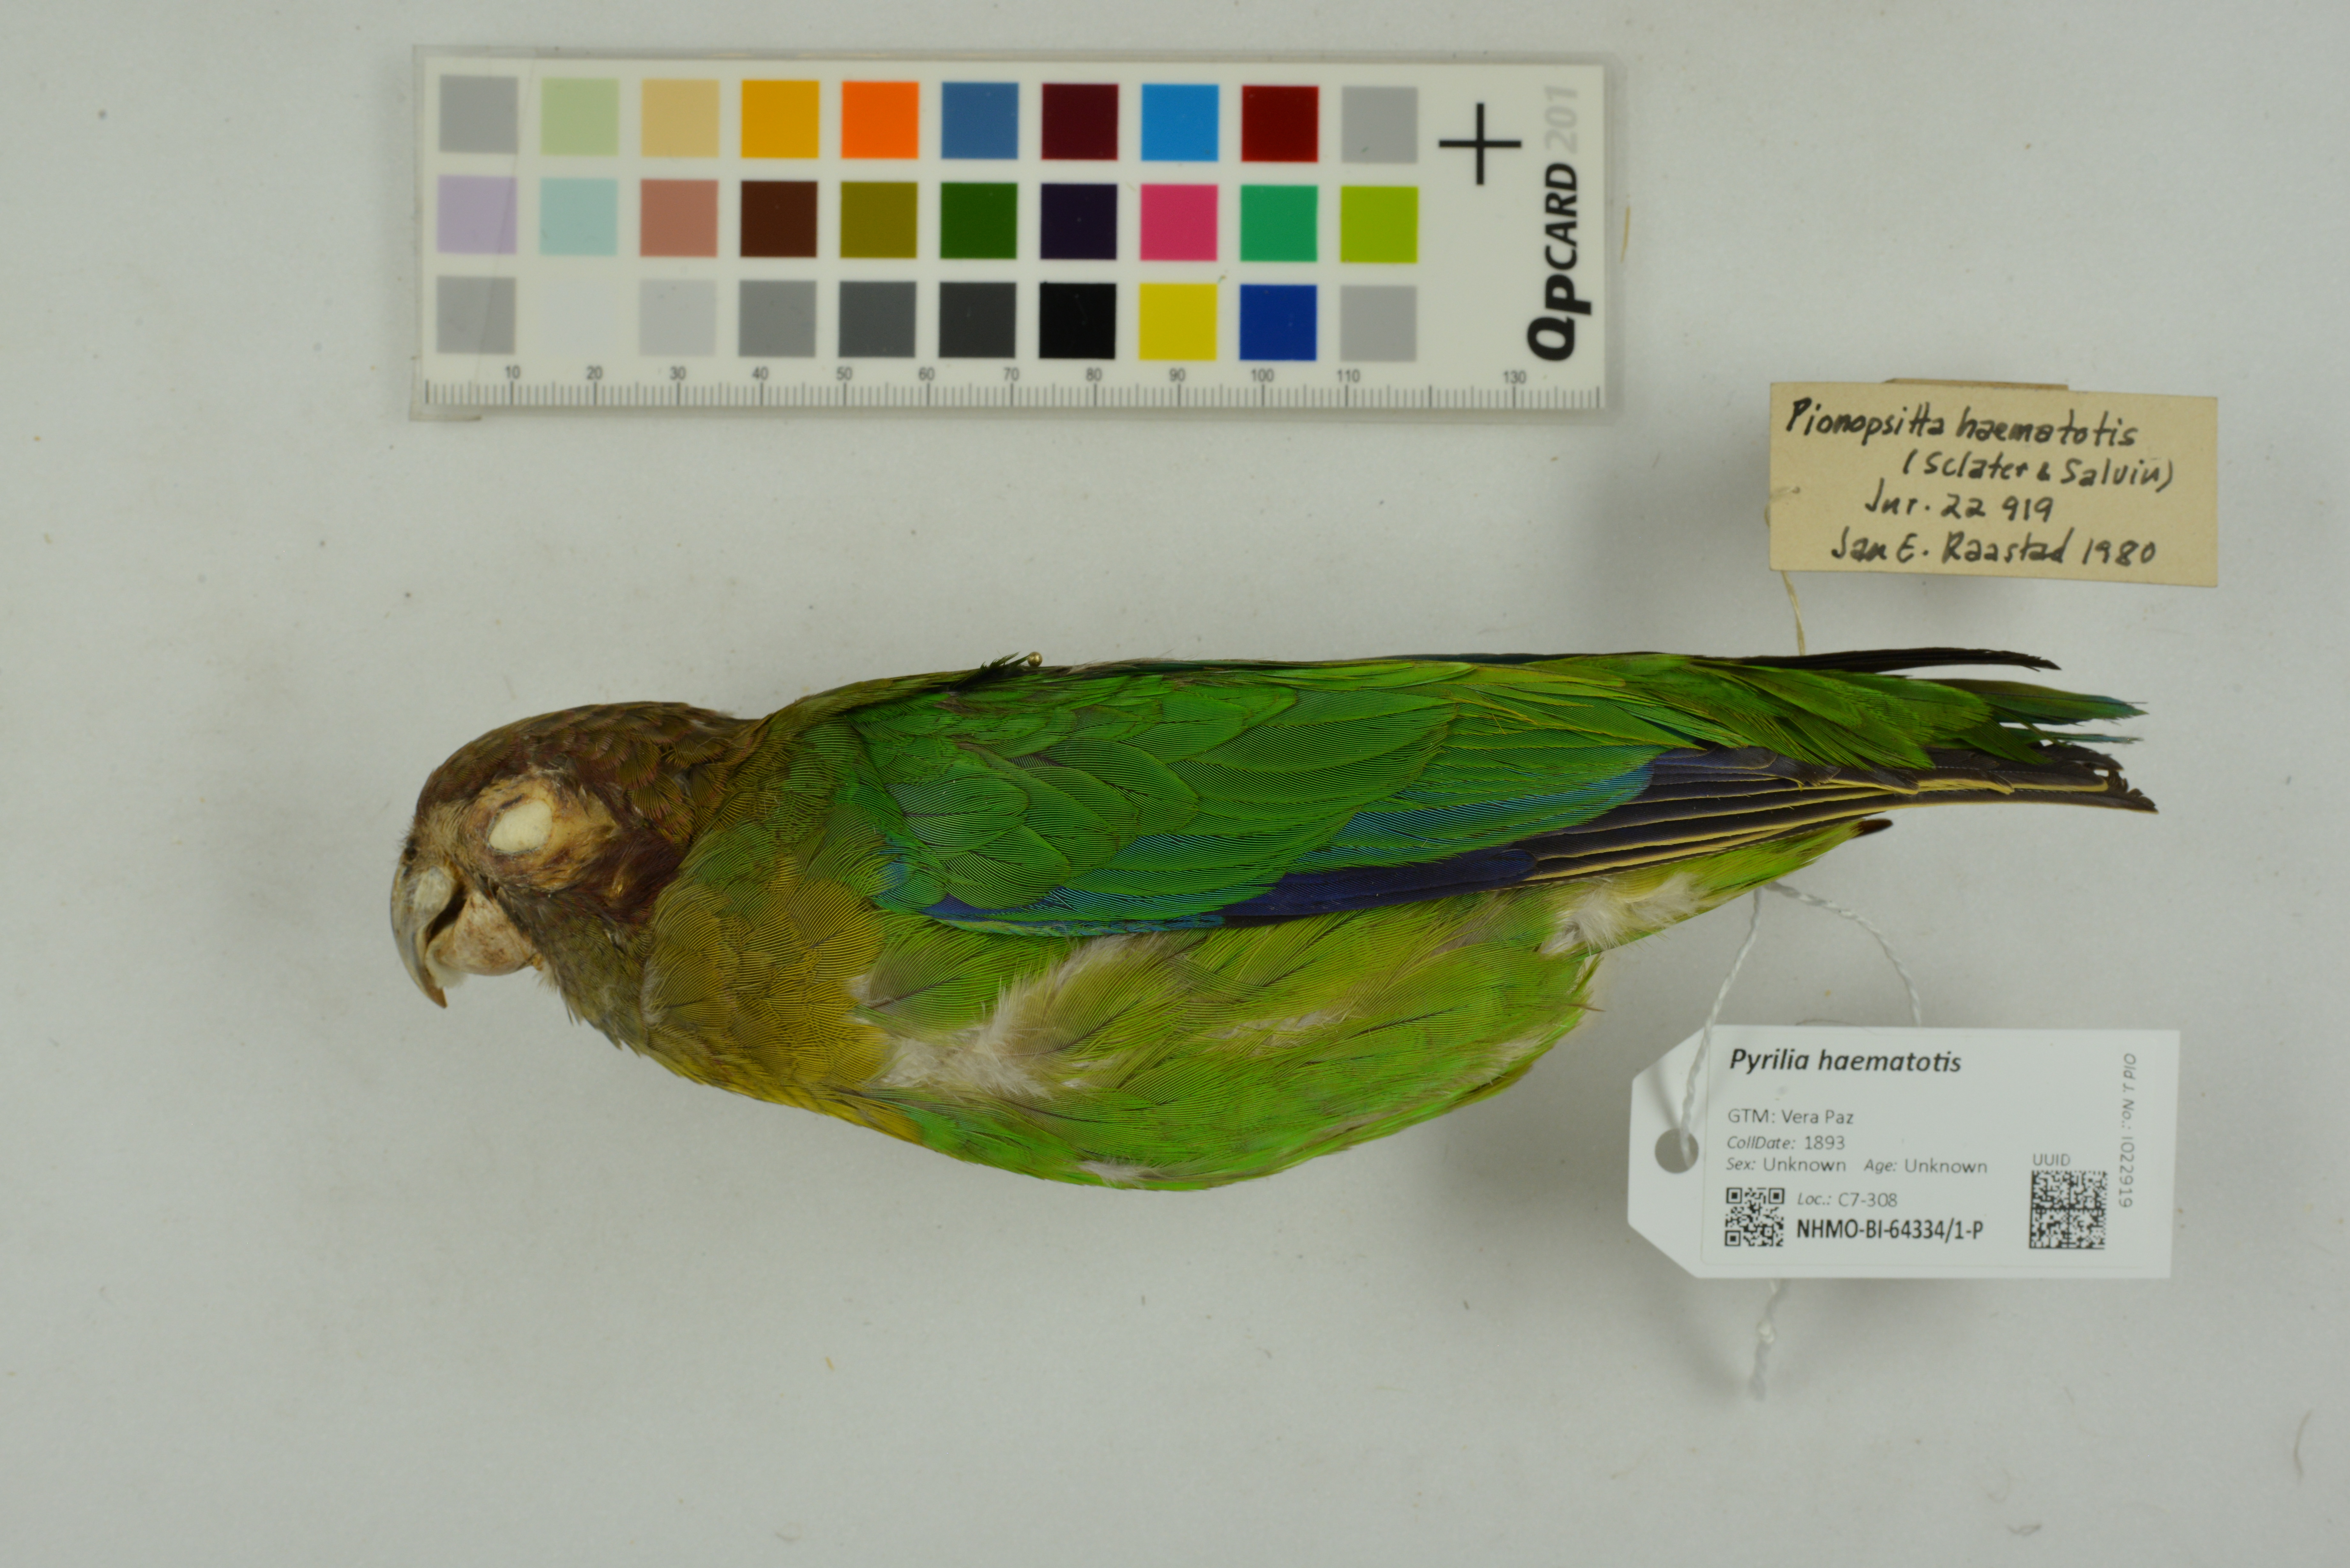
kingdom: Animalia
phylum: Chordata
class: Aves
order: Psittaciformes
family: Psittacidae
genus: Pionopsitta
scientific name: Pionopsitta haematotis
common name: Brown-hooded parrot
